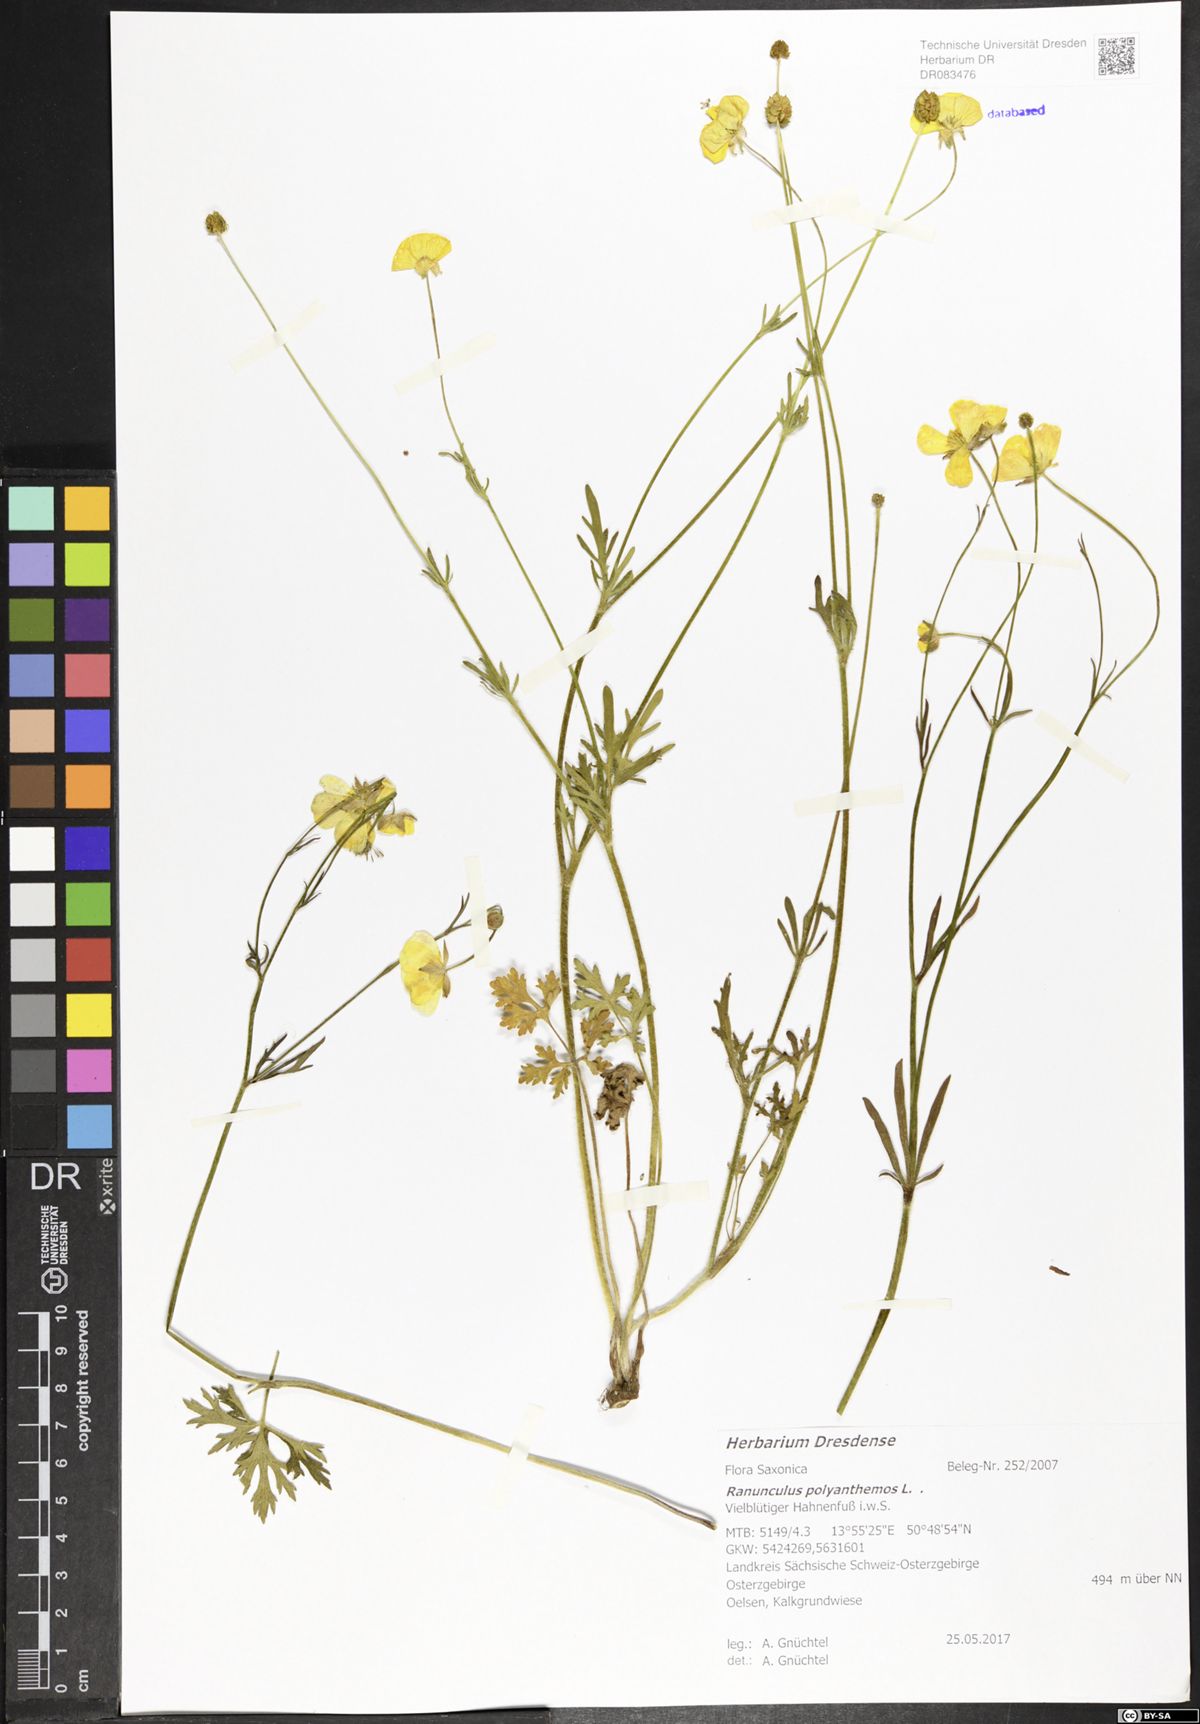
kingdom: Plantae
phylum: Tracheophyta
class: Magnoliopsida
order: Ranunculales
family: Ranunculaceae
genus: Ranunculus
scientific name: Ranunculus polyanthemos
